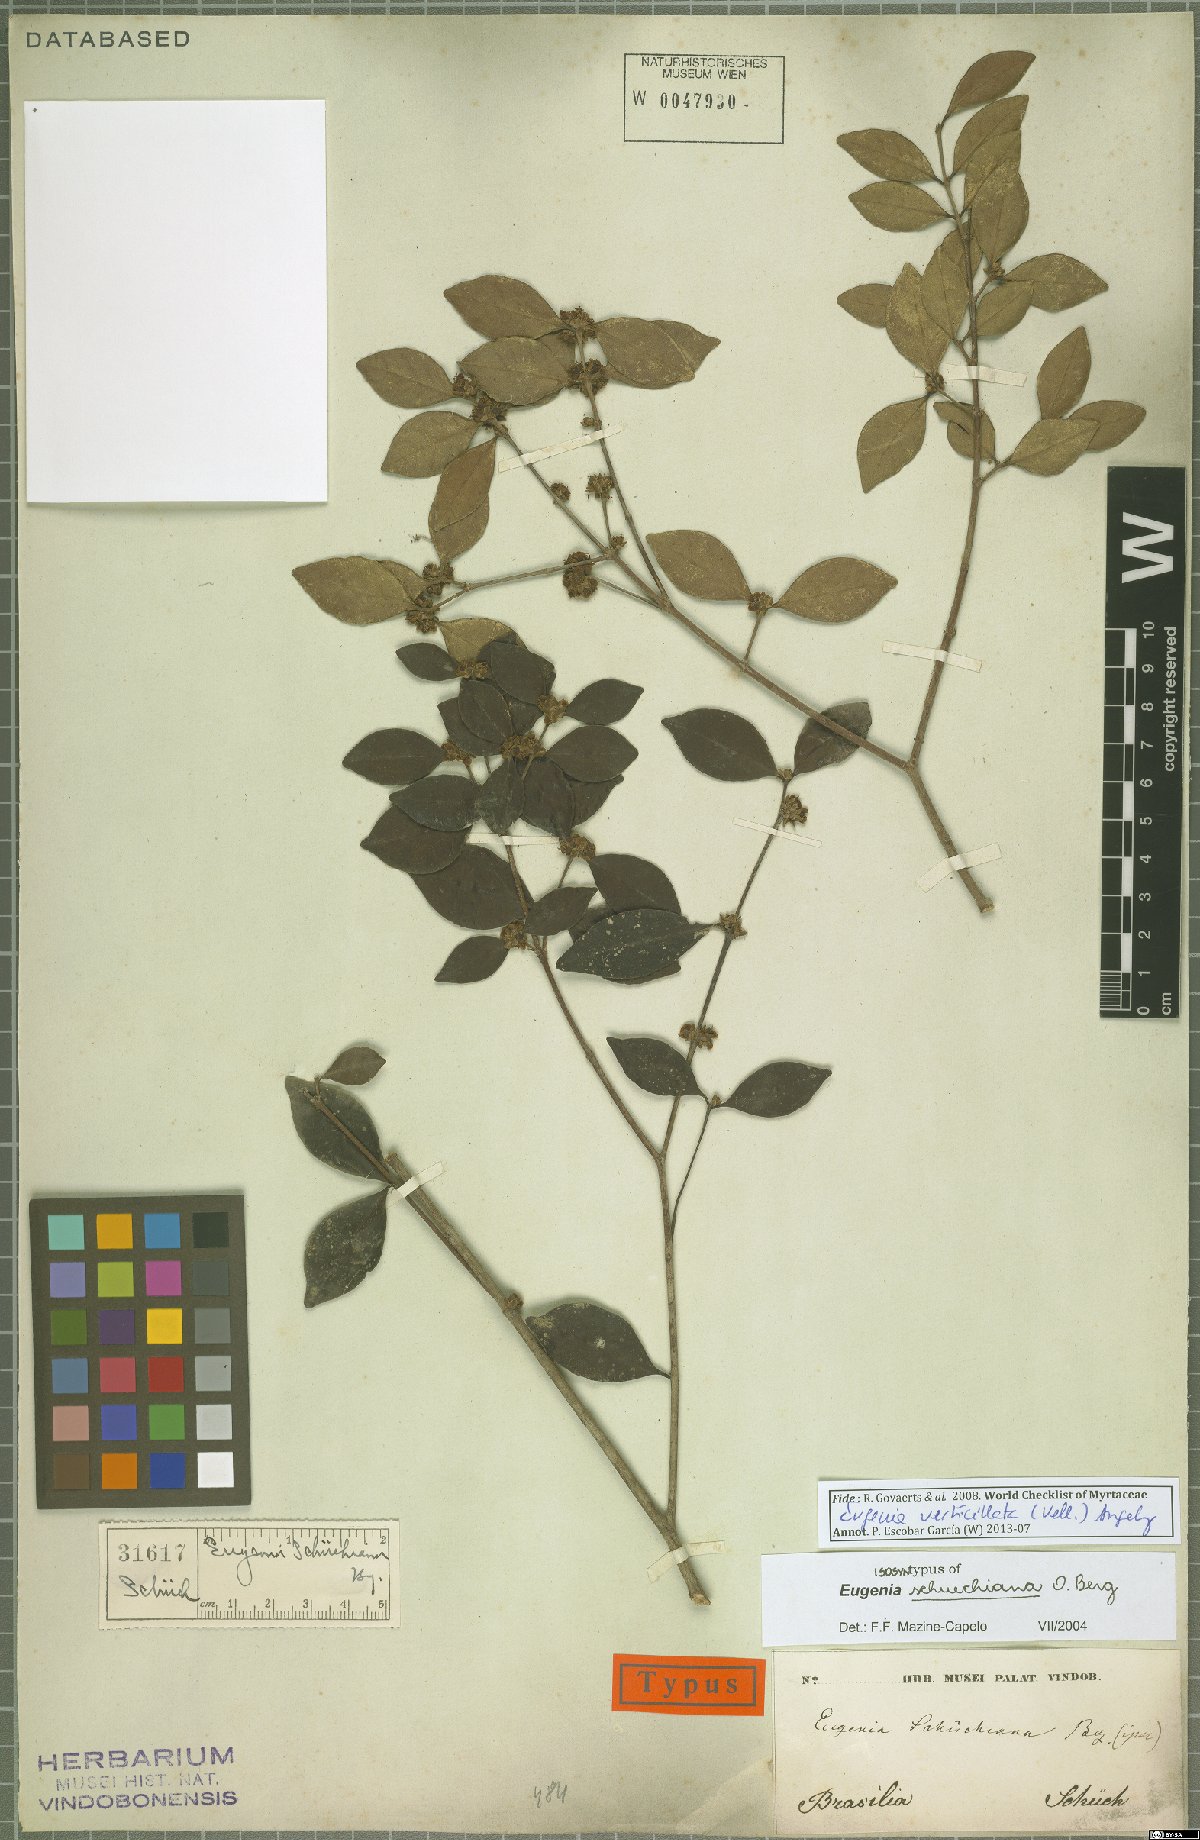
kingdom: Plantae
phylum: Tracheophyta
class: Magnoliopsida
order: Myrtales
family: Myrtaceae
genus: Eugenia
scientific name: Eugenia verticillata
